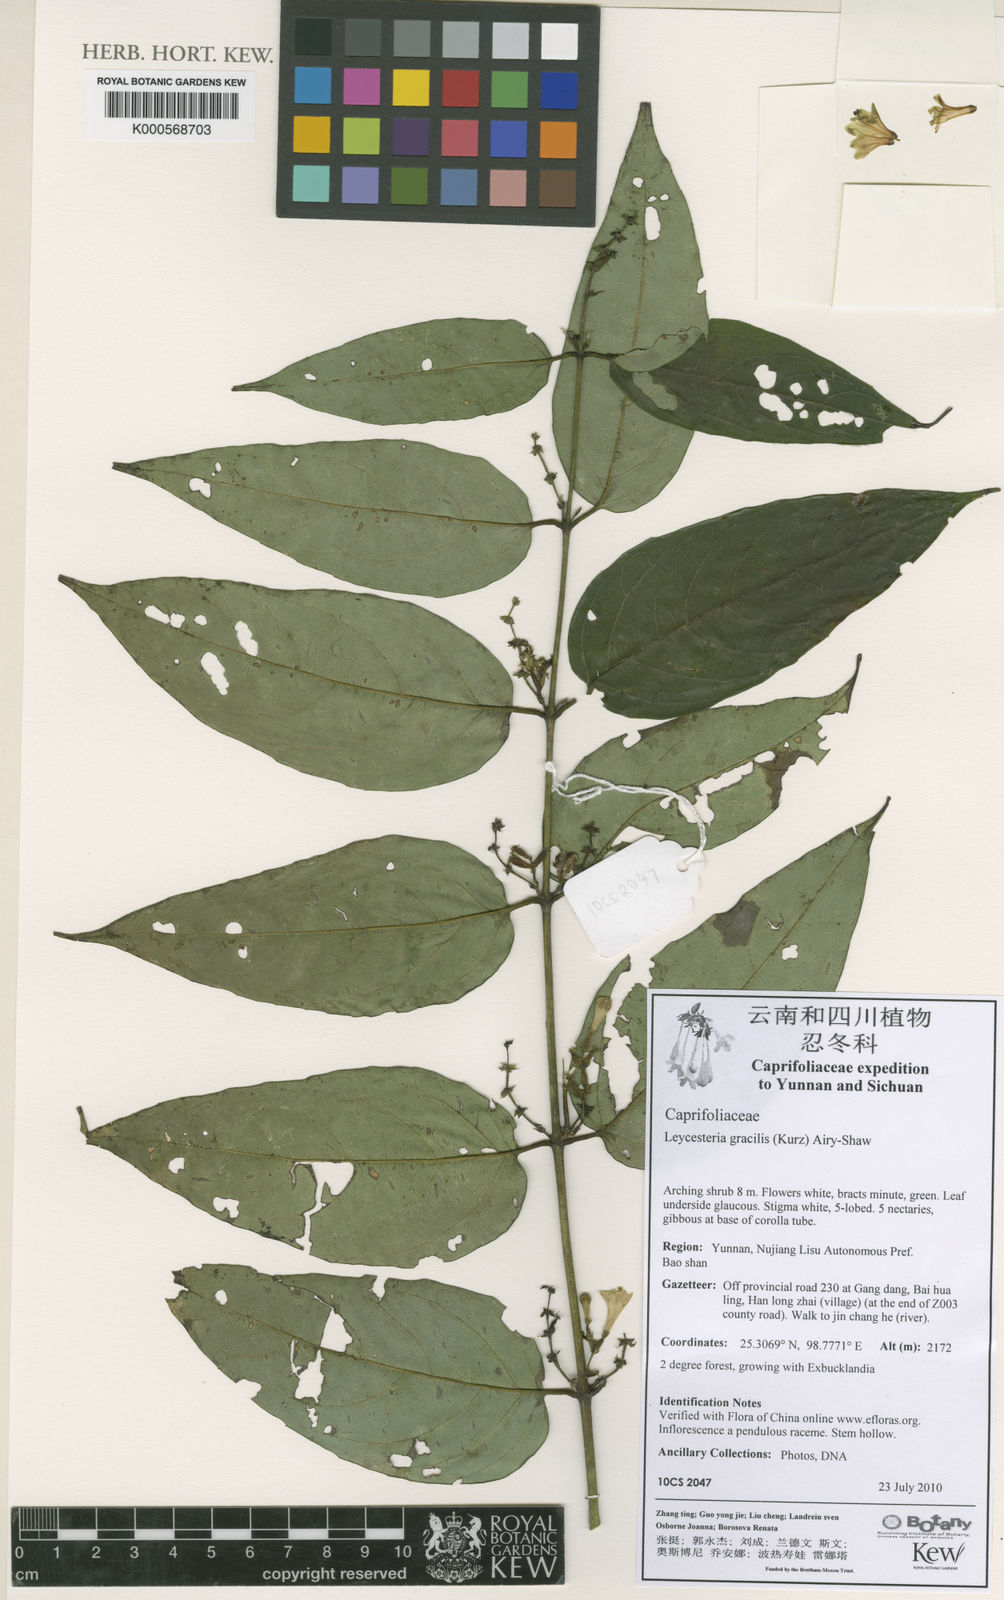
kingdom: Plantae
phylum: Tracheophyta
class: Magnoliopsida
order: Dipsacales
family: Caprifoliaceae
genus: Leycesteria
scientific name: Leycesteria gracilis
